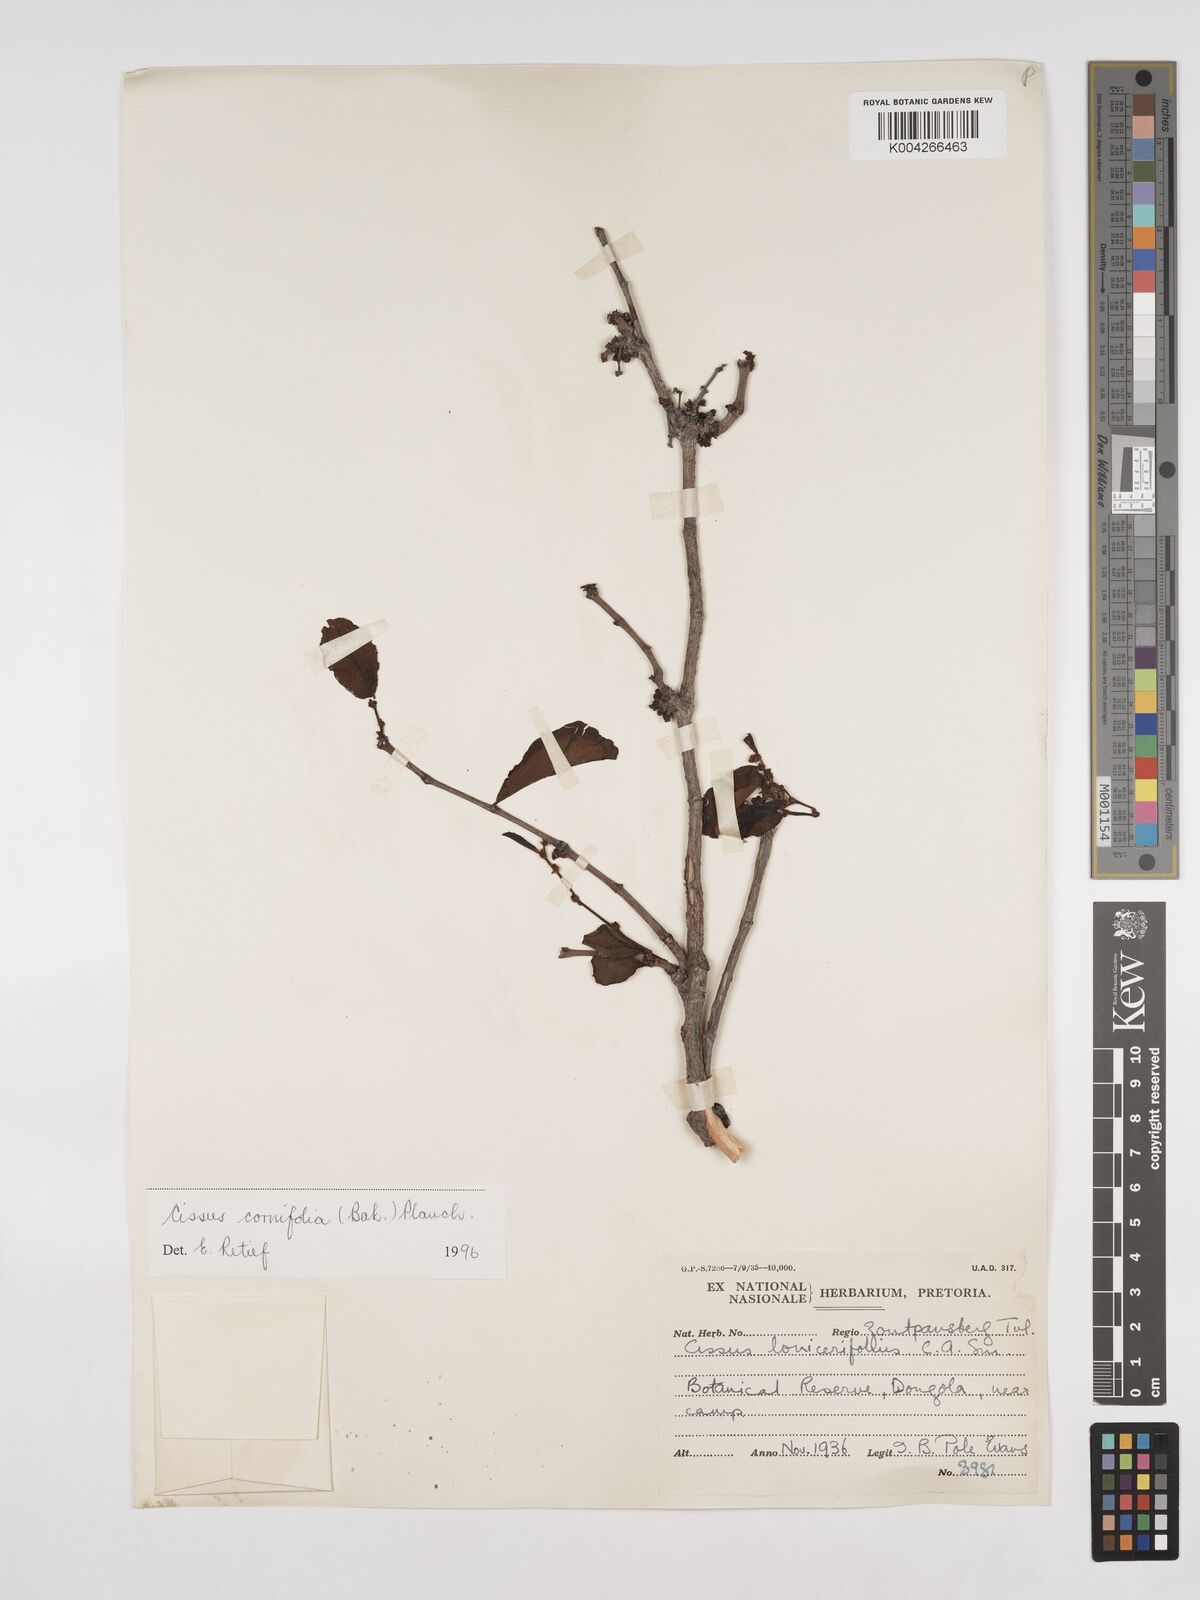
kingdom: Plantae
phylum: Tracheophyta
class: Magnoliopsida
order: Vitales
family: Vitaceae
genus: Cissus
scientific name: Cissus cornifolia
